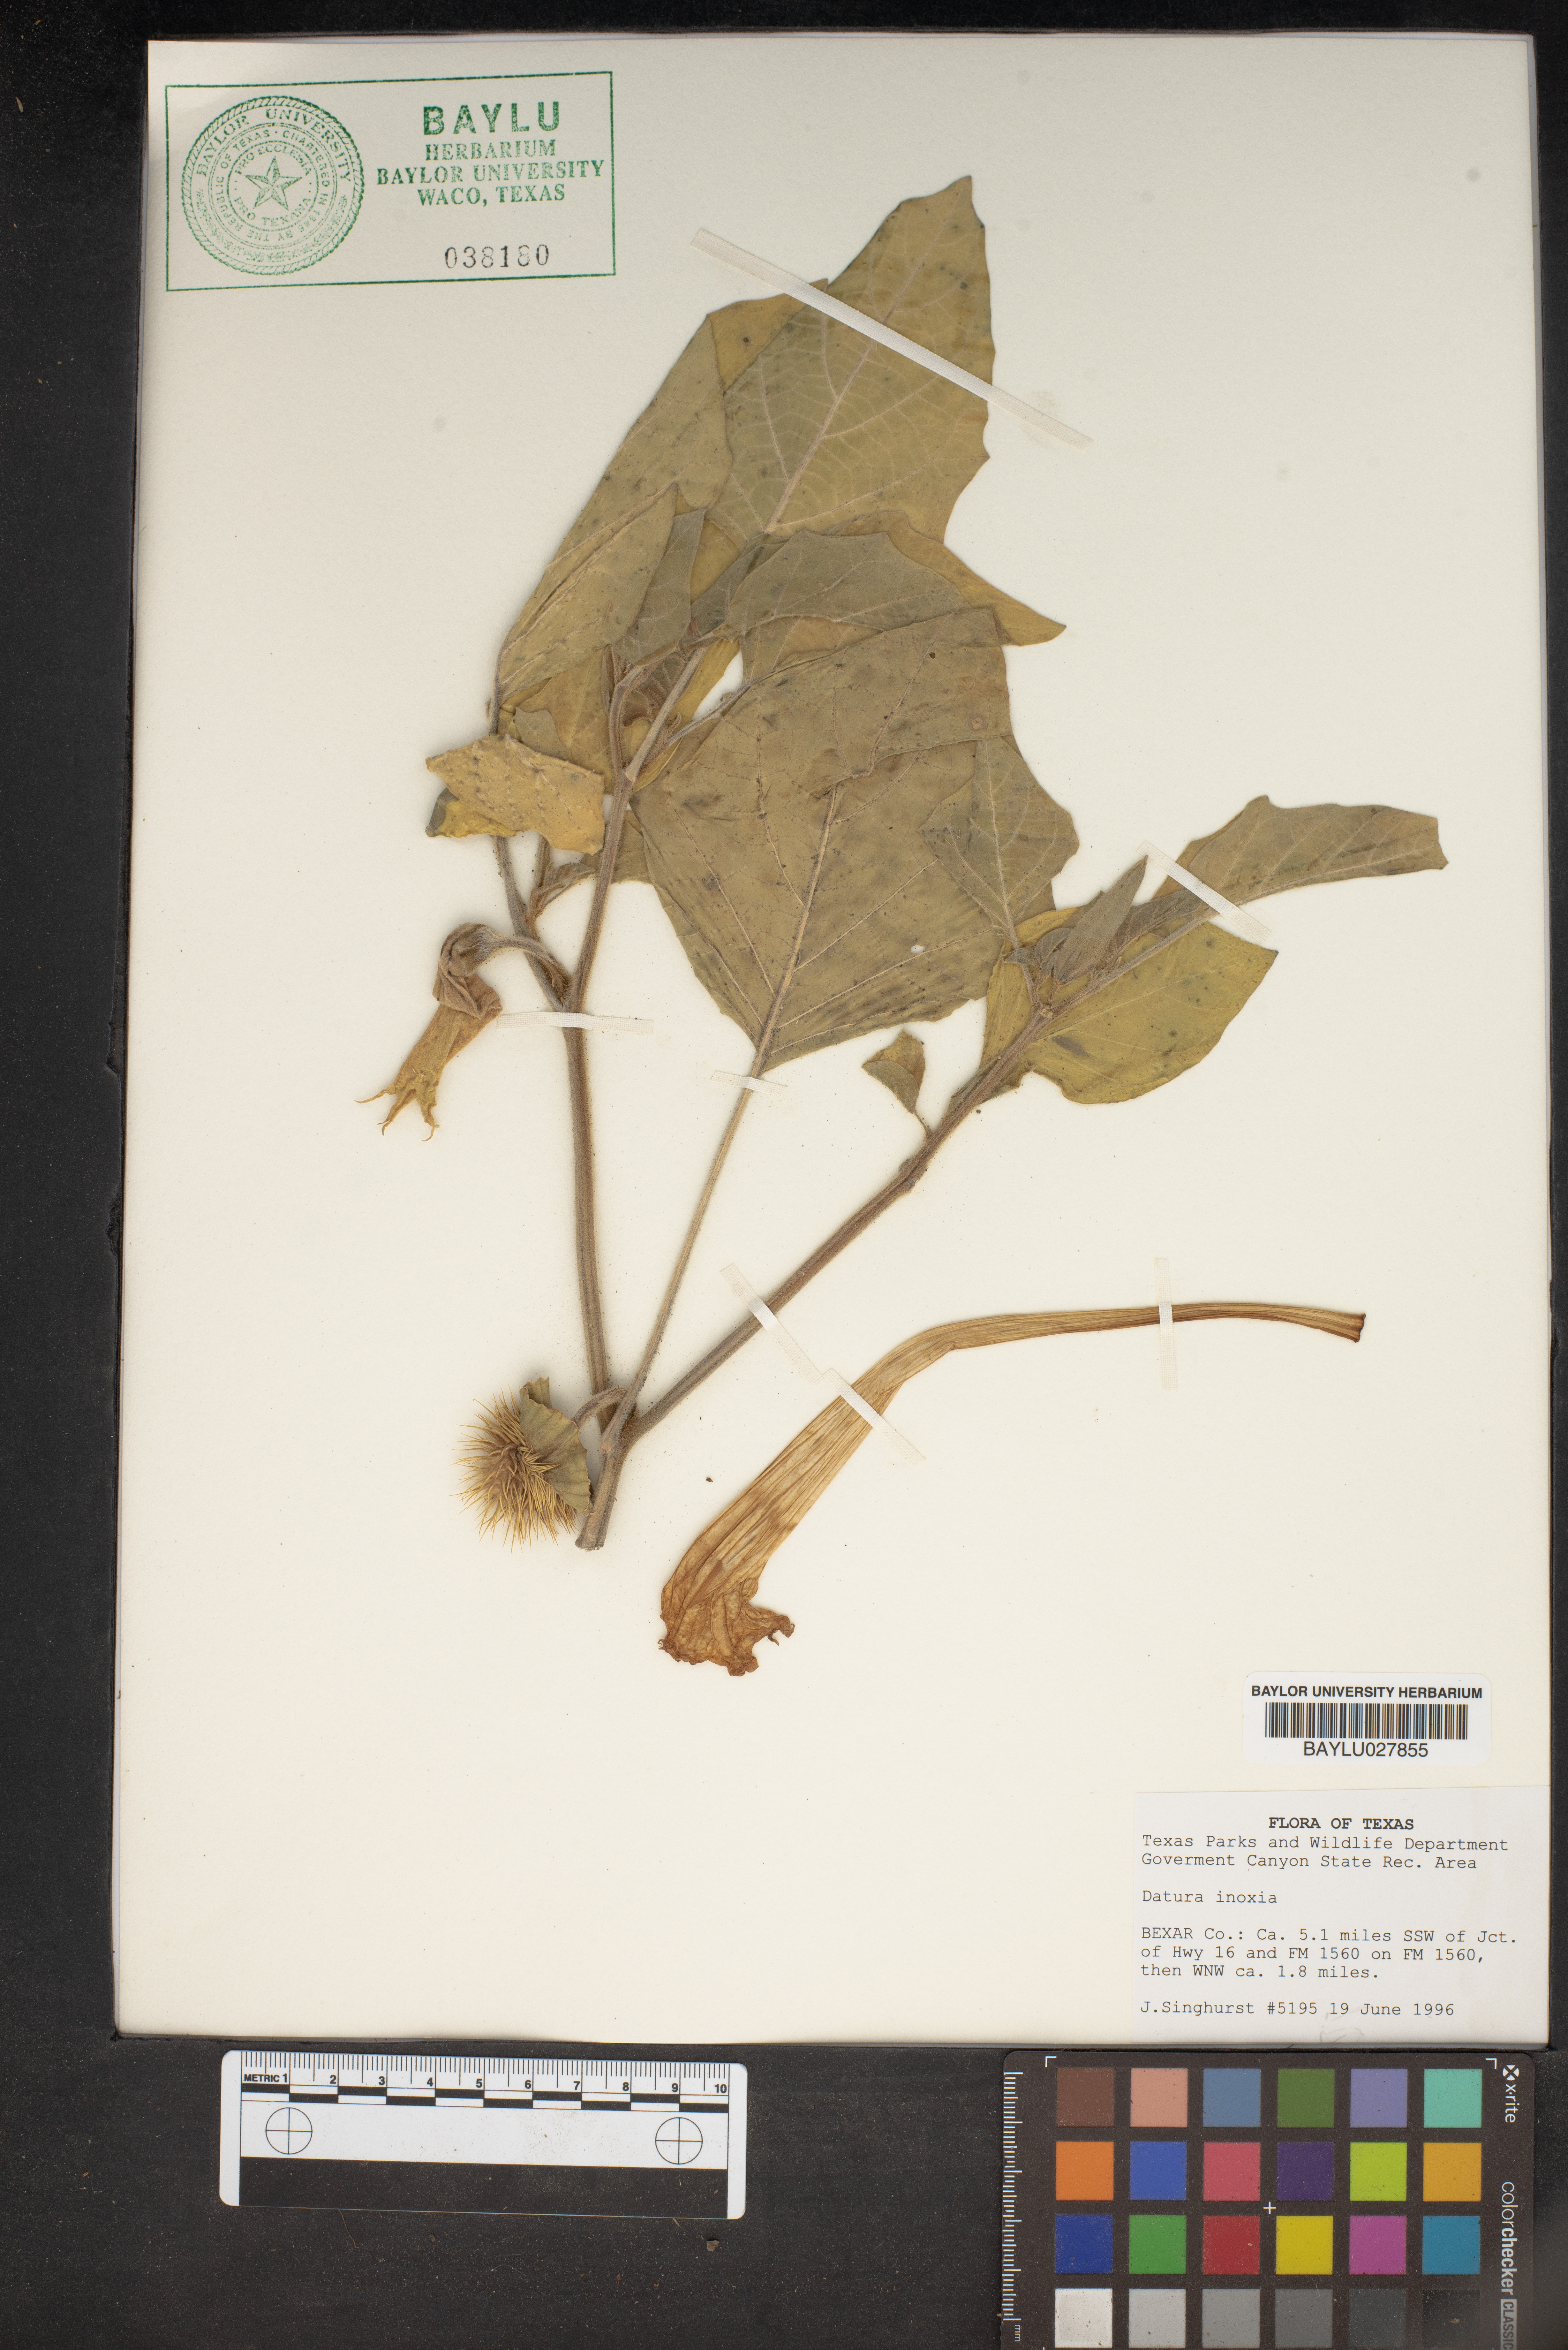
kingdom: Plantae
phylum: Tracheophyta
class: Magnoliopsida
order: Solanales
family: Solanaceae
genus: Datura
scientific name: Datura innoxia
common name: Downy thorn-apple
